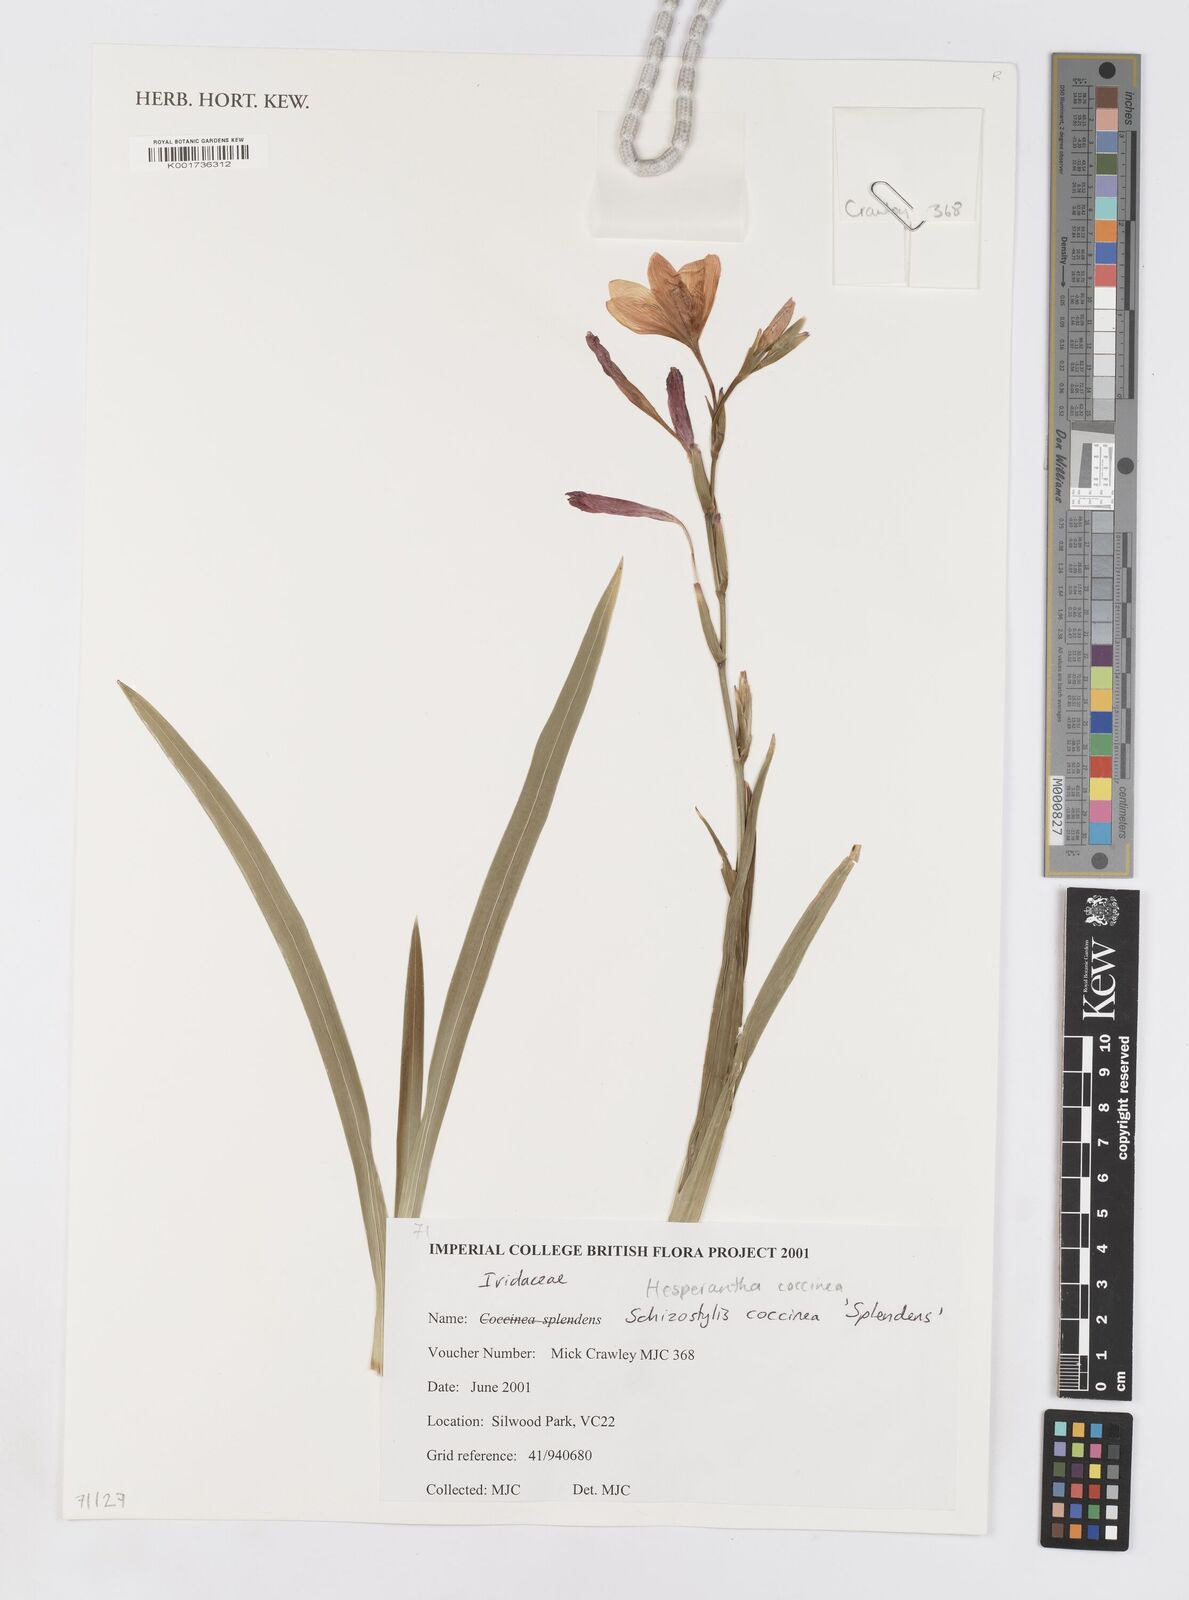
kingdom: Plantae
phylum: Tracheophyta
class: Liliopsida
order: Asparagales
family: Iridaceae
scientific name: Iridaceae
